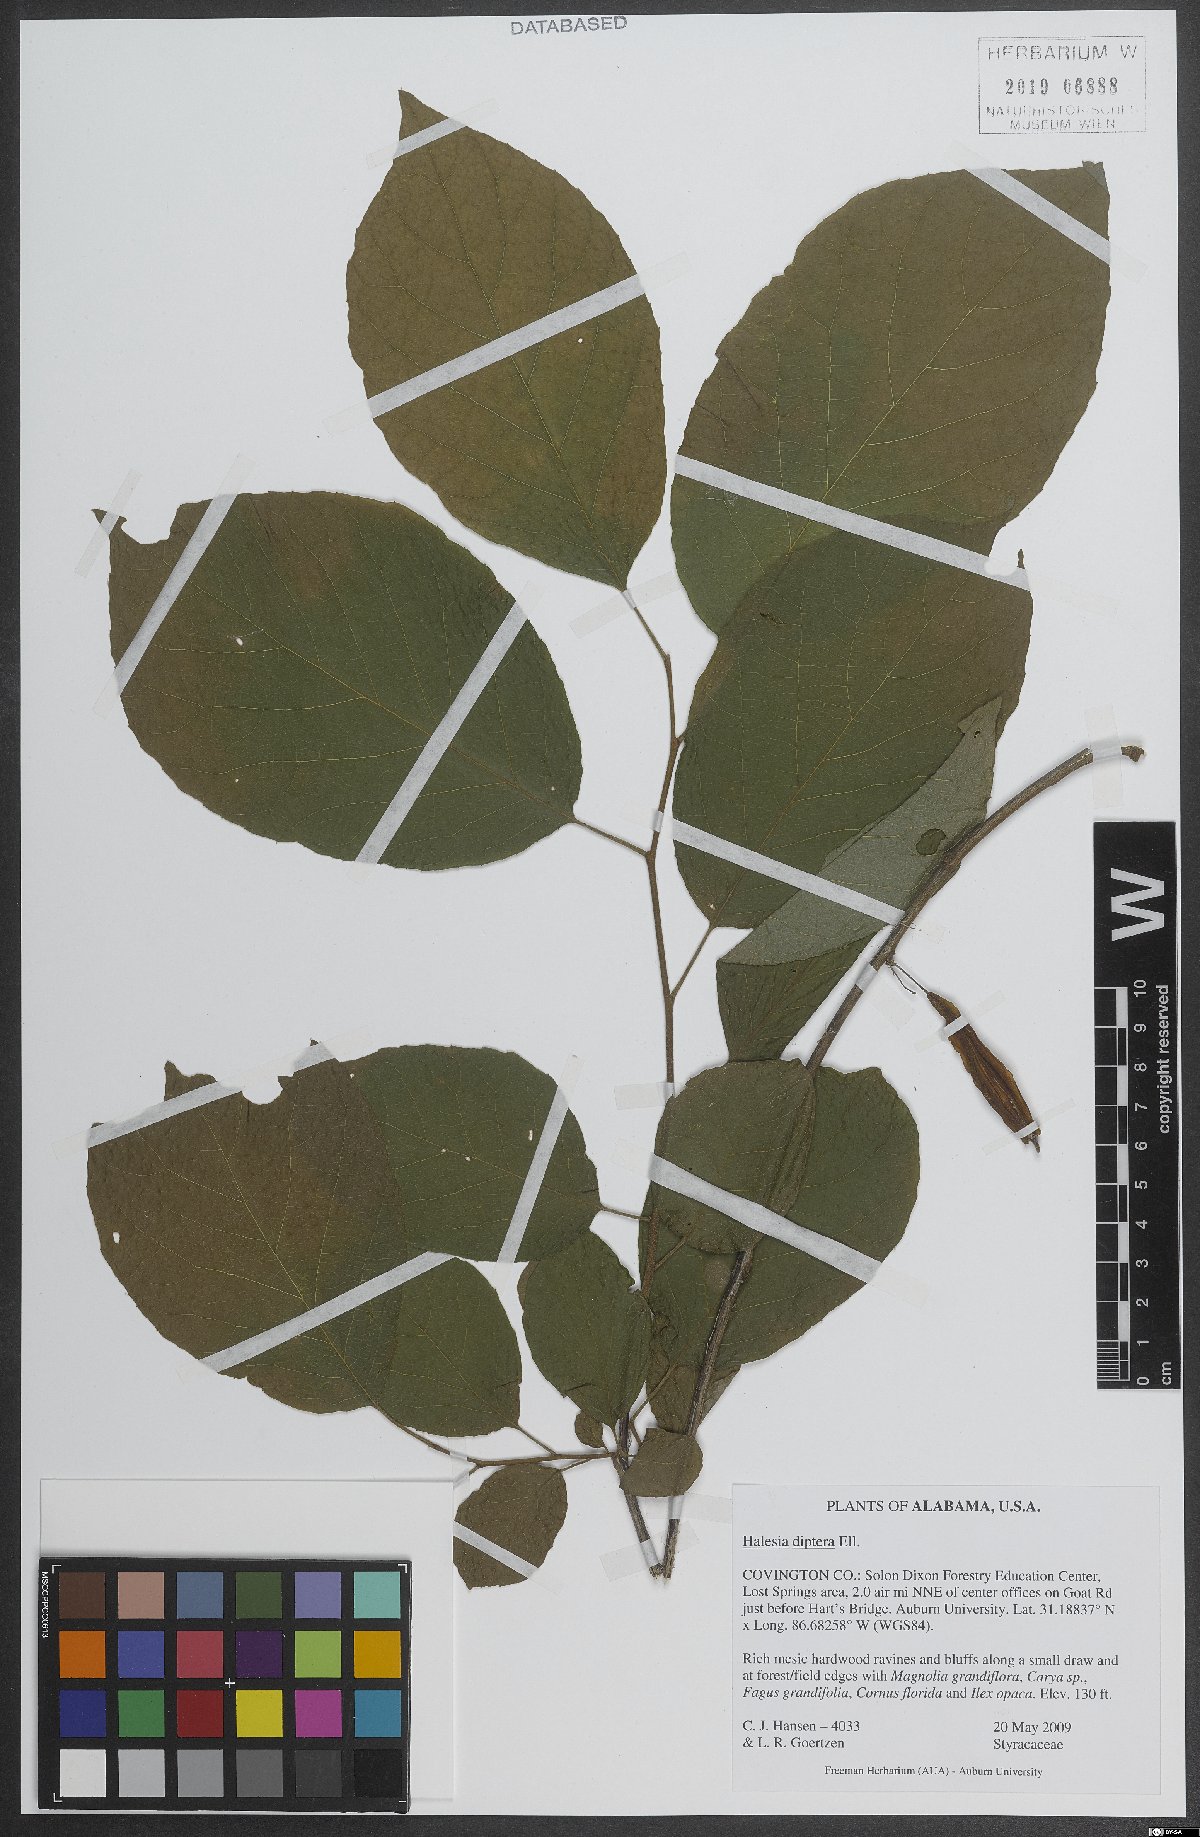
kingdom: Plantae
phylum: Tracheophyta
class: Magnoliopsida
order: Ericales
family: Styracaceae
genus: Halesia
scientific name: Halesia diptera
